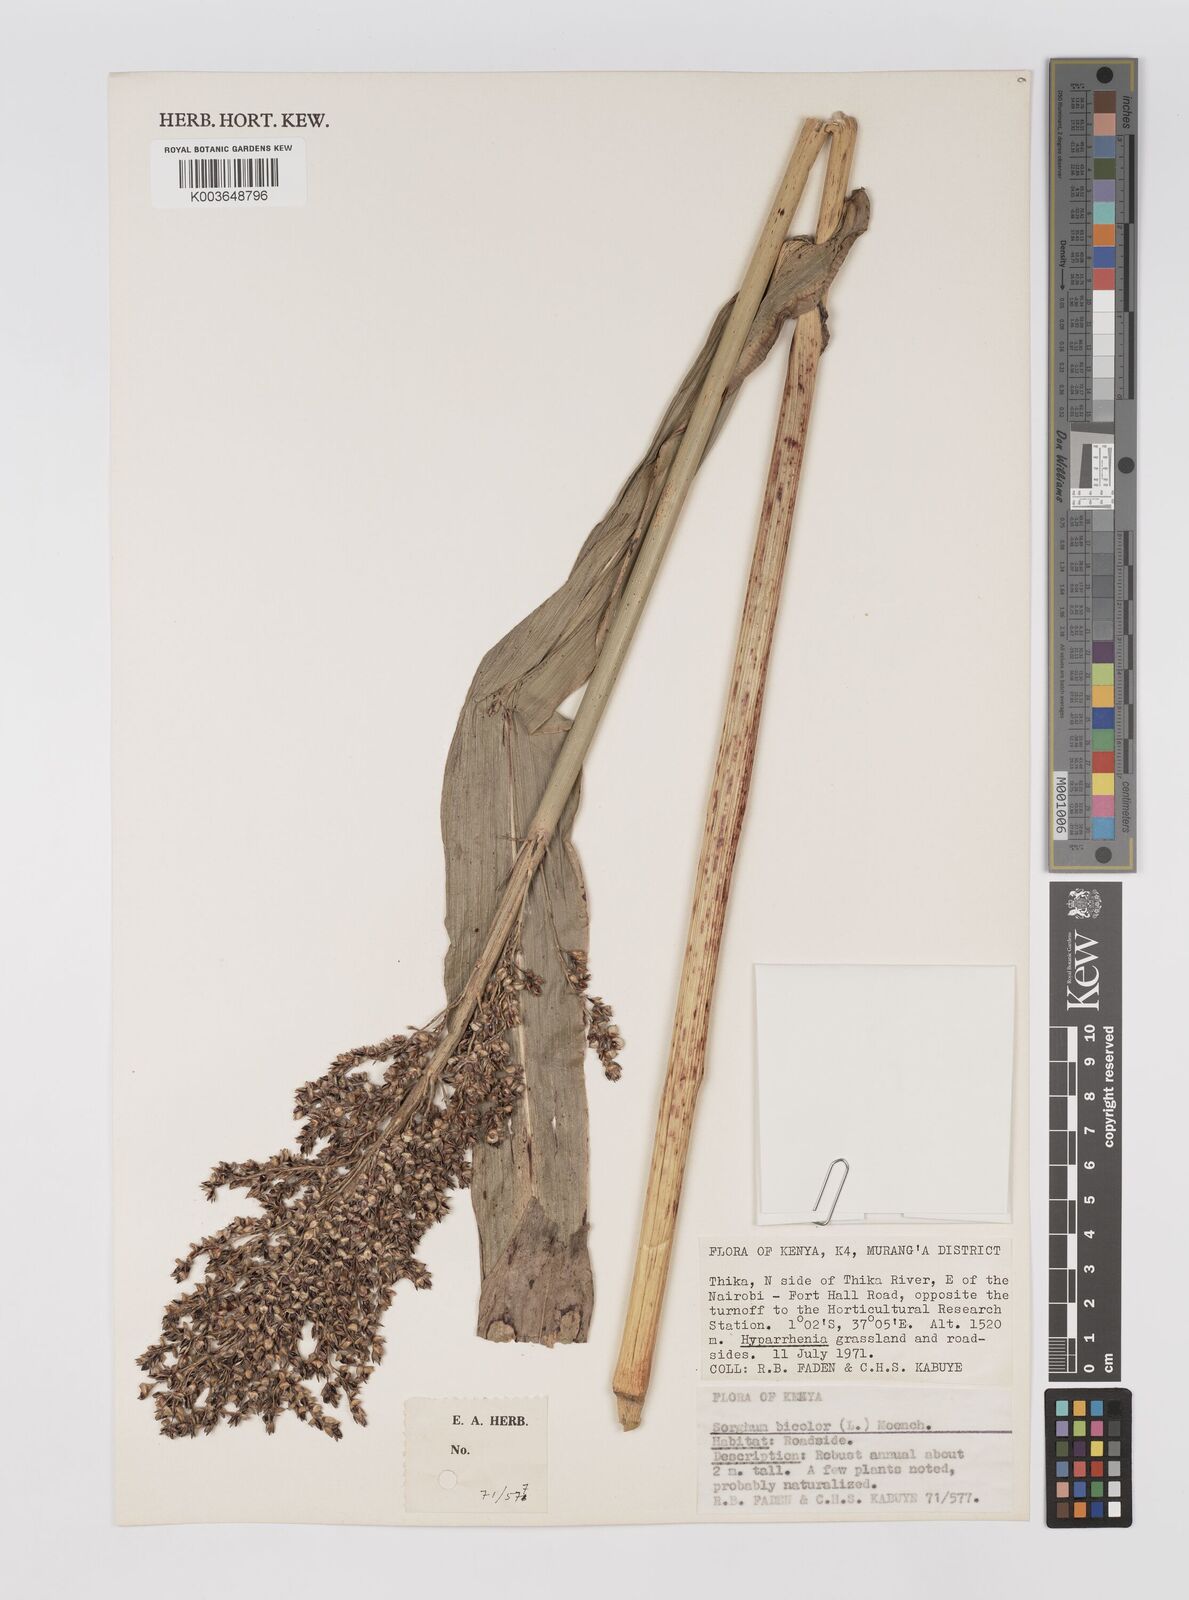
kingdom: Plantae
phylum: Tracheophyta
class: Liliopsida
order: Poales
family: Poaceae
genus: Sorghum
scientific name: Sorghum bicolor
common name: Sorghum
